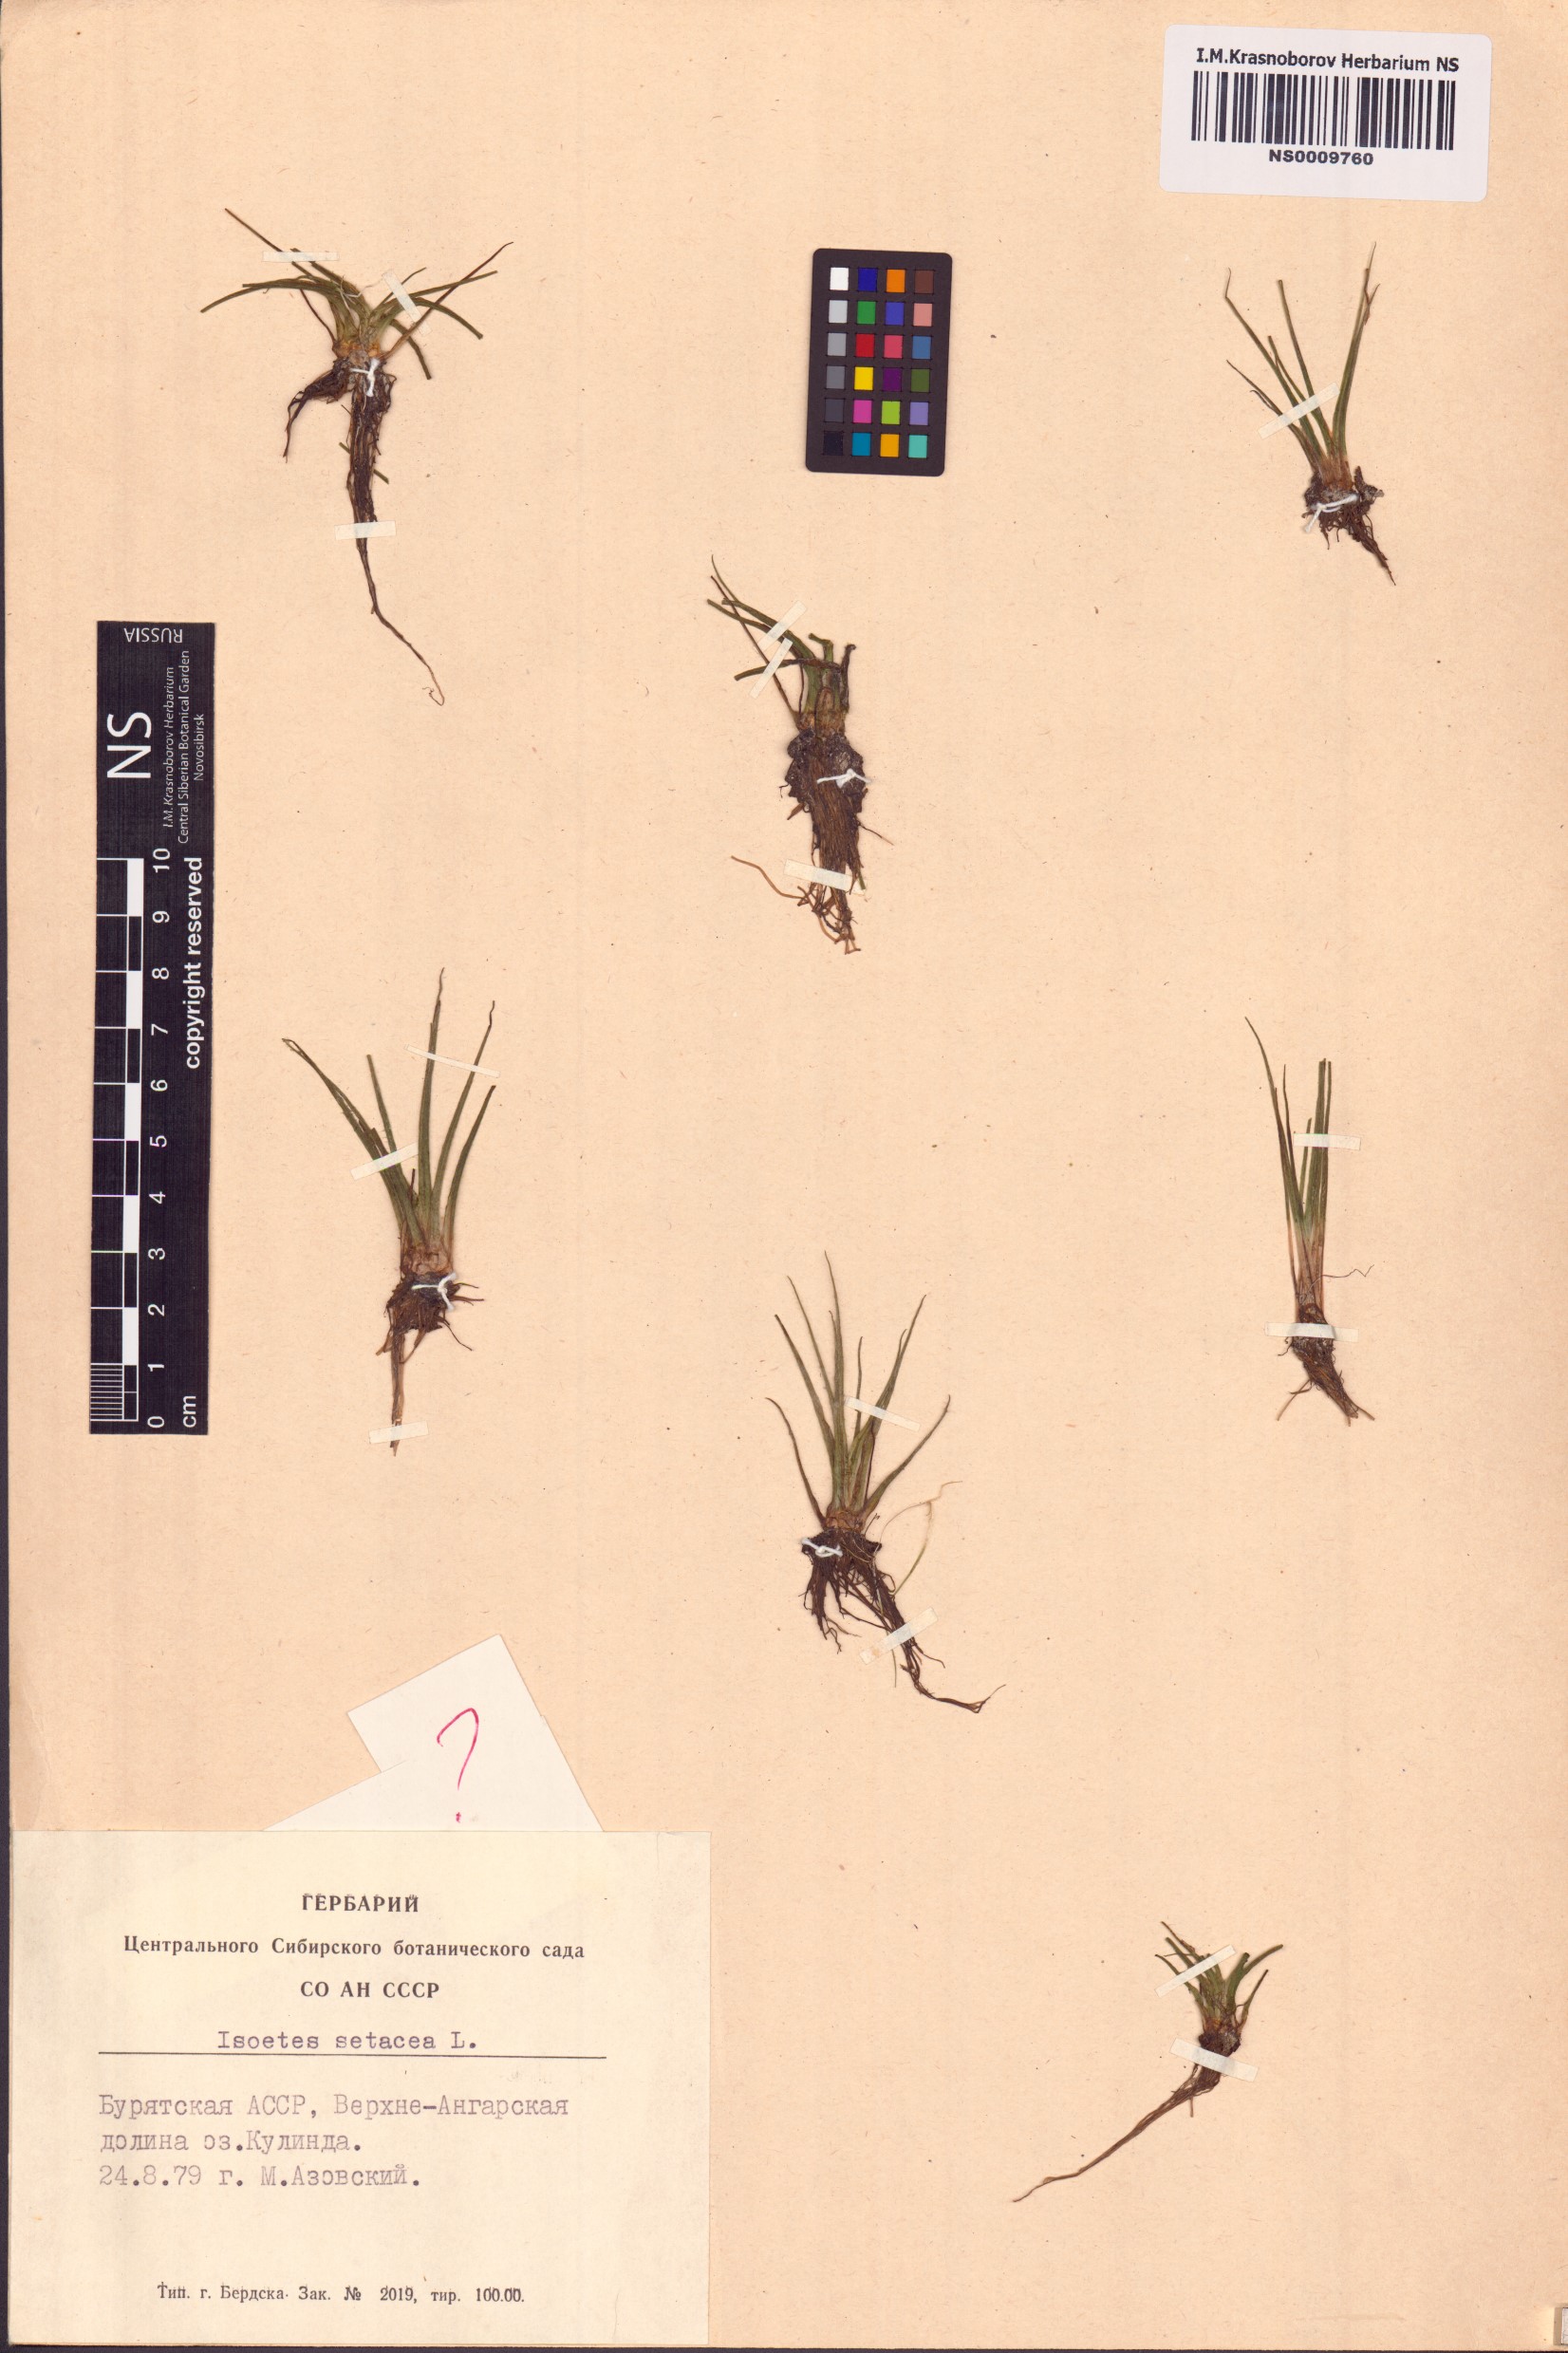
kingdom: Plantae
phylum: Tracheophyta
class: Lycopodiopsida
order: Isoetales
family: Isoetaceae
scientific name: Isoetaceae
